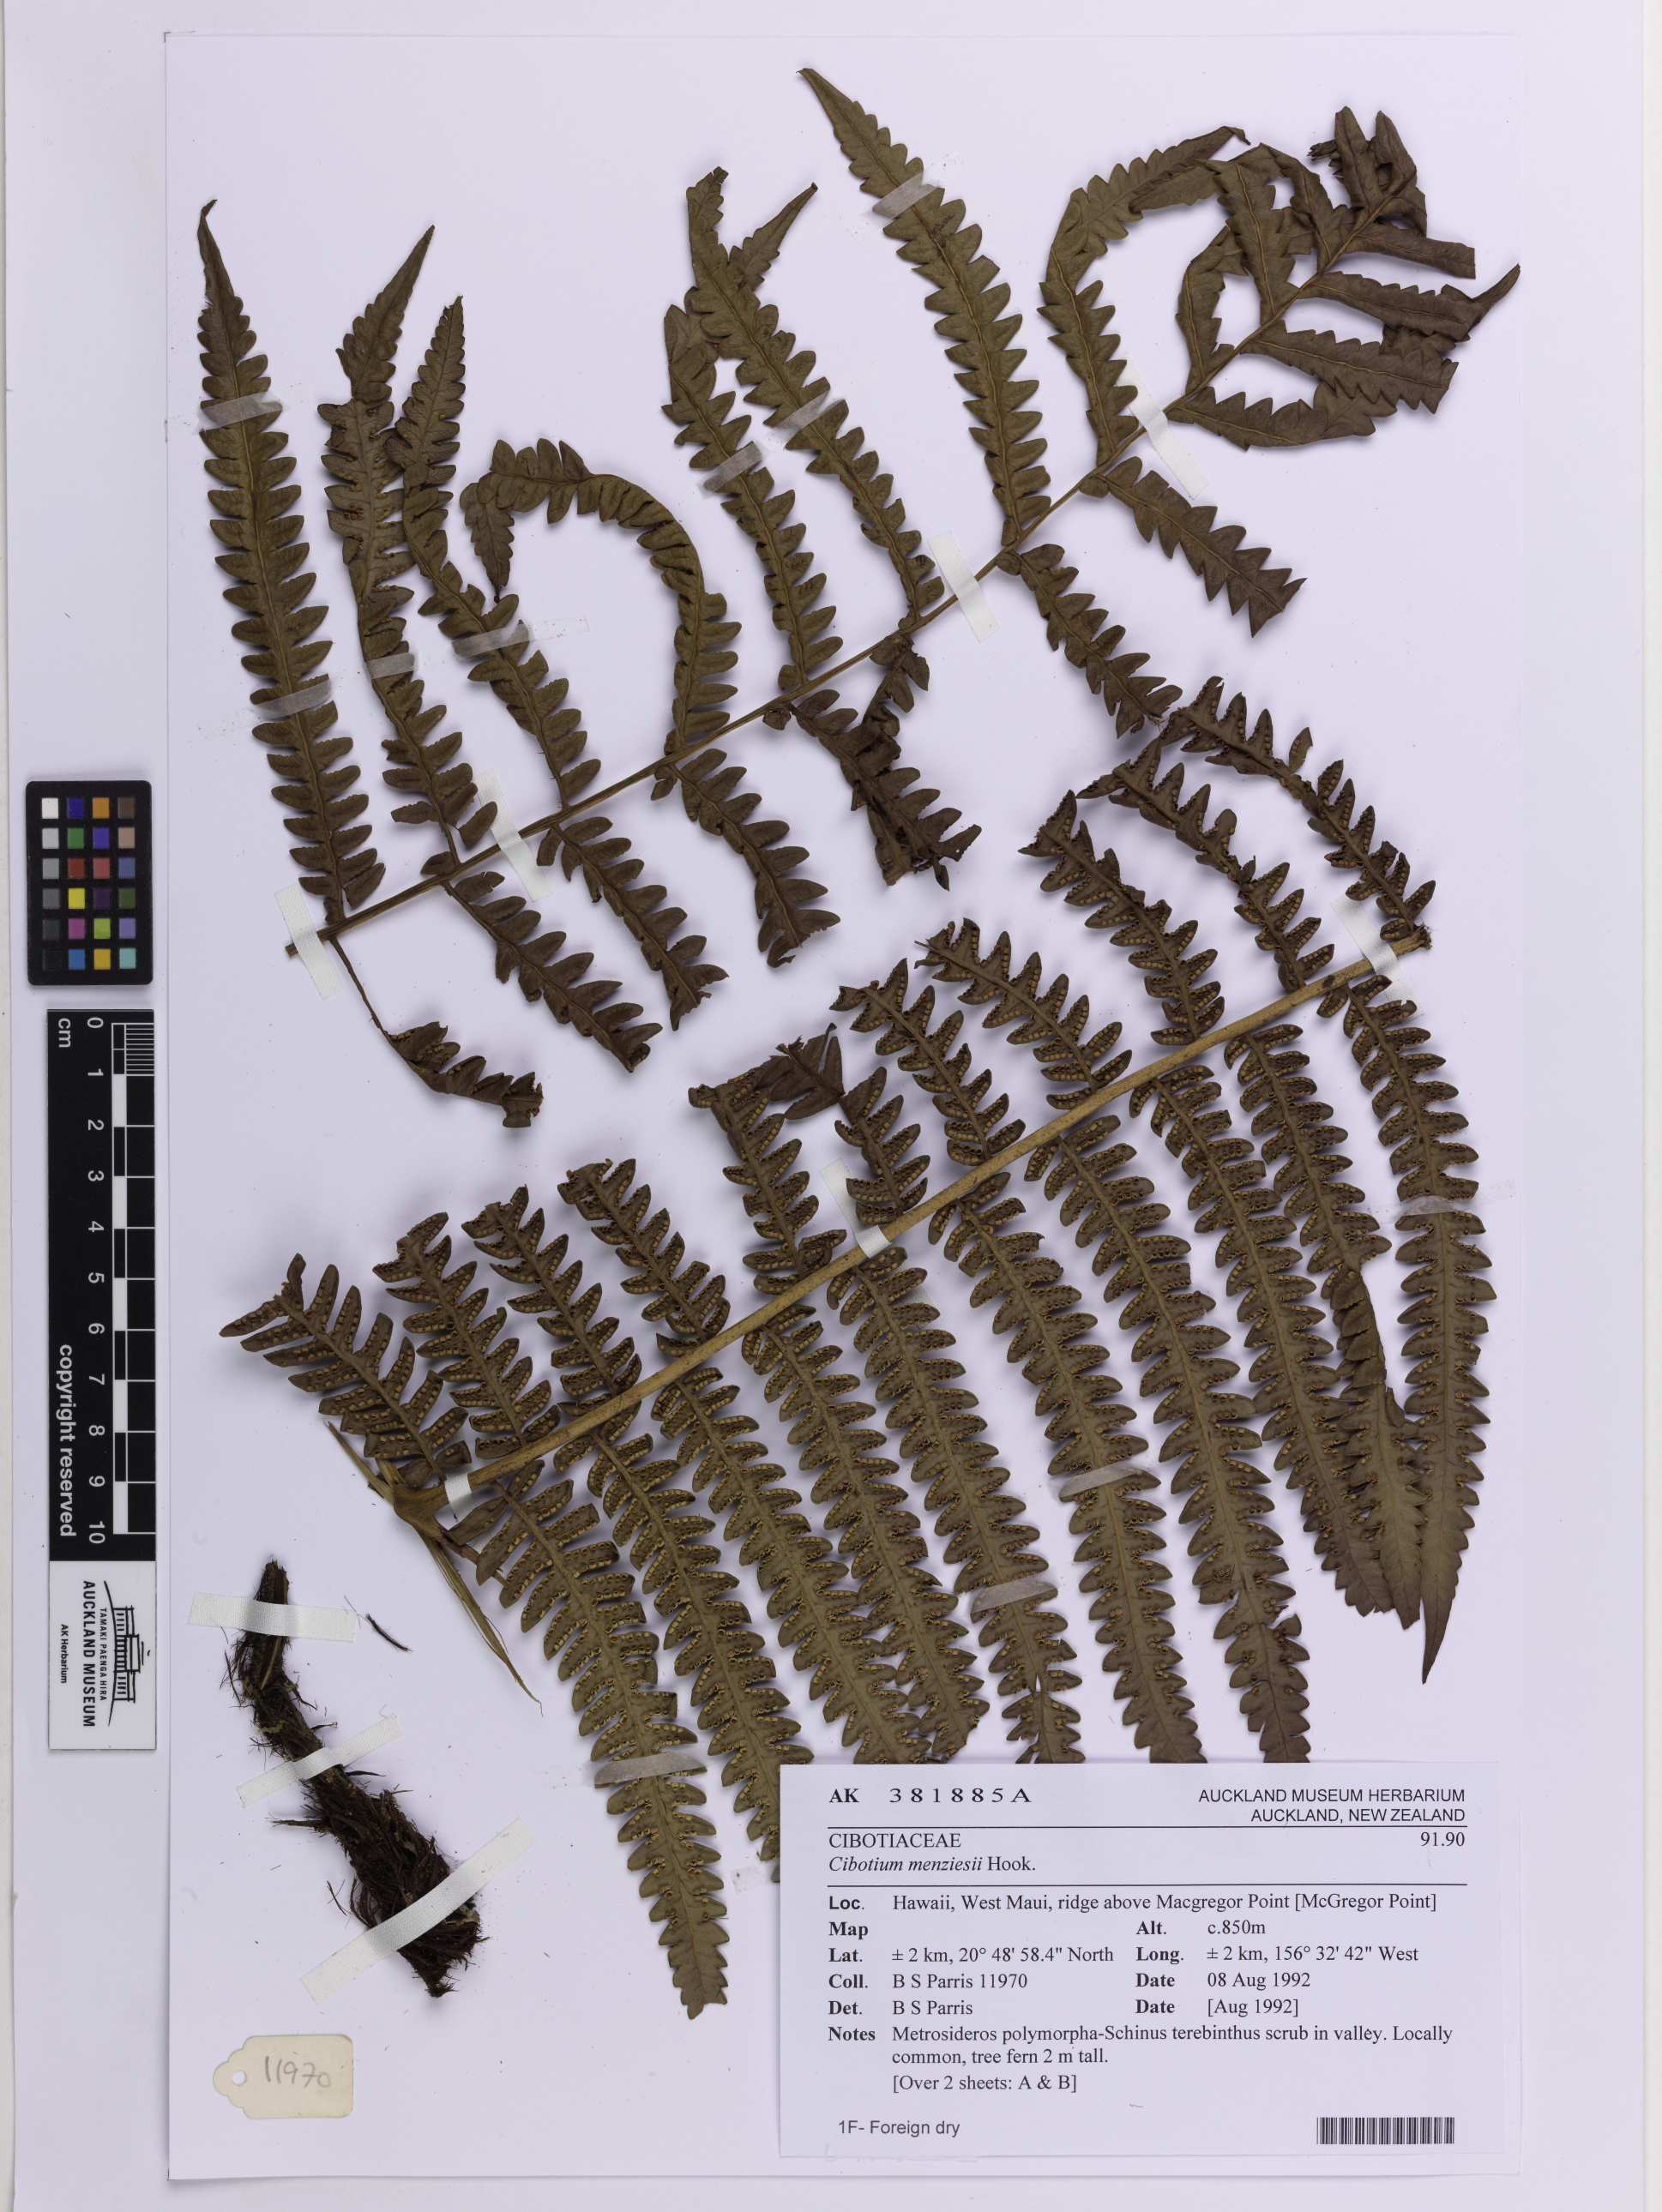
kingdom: Plantae
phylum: Tracheophyta
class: Polypodiopsida
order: Cyatheales
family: Cibotiaceae
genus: Cibotium
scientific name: Cibotium menziesii
